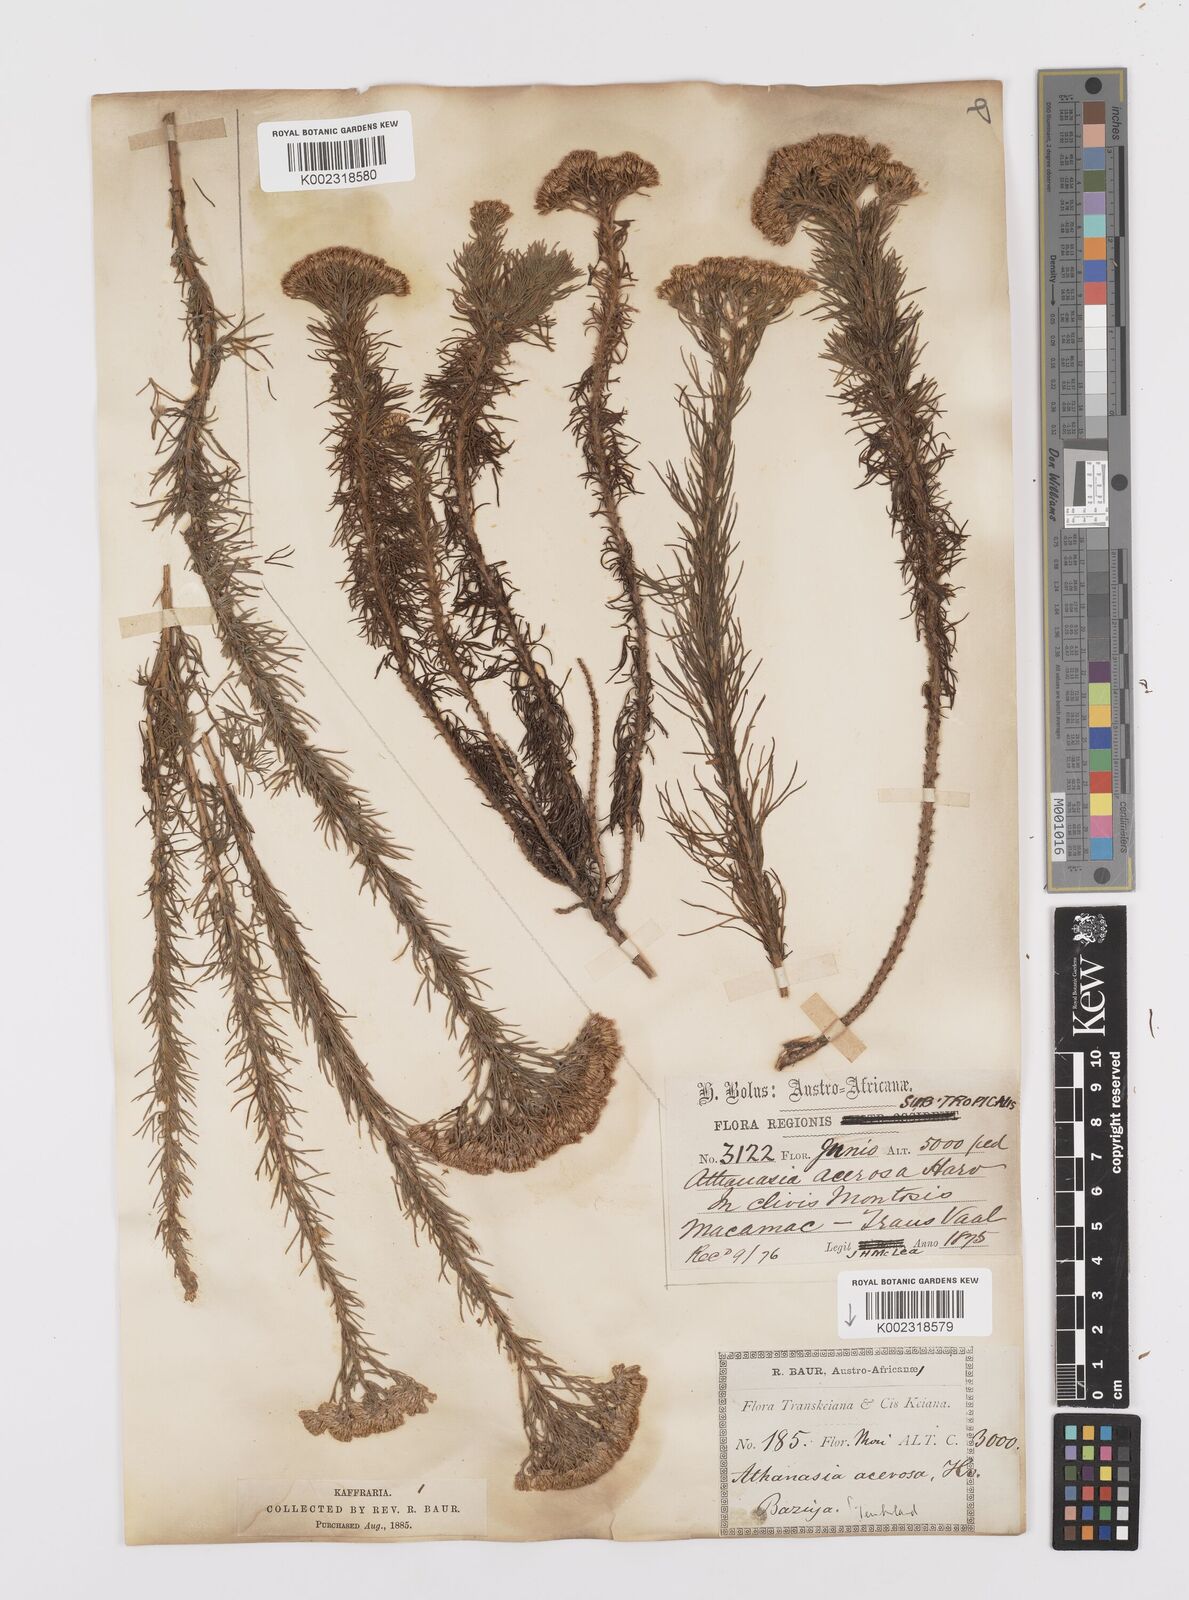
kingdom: Plantae
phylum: Tracheophyta
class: Magnoliopsida
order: Asterales
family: Asteraceae
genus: Phymaspermum
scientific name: Phymaspermum acerosum
